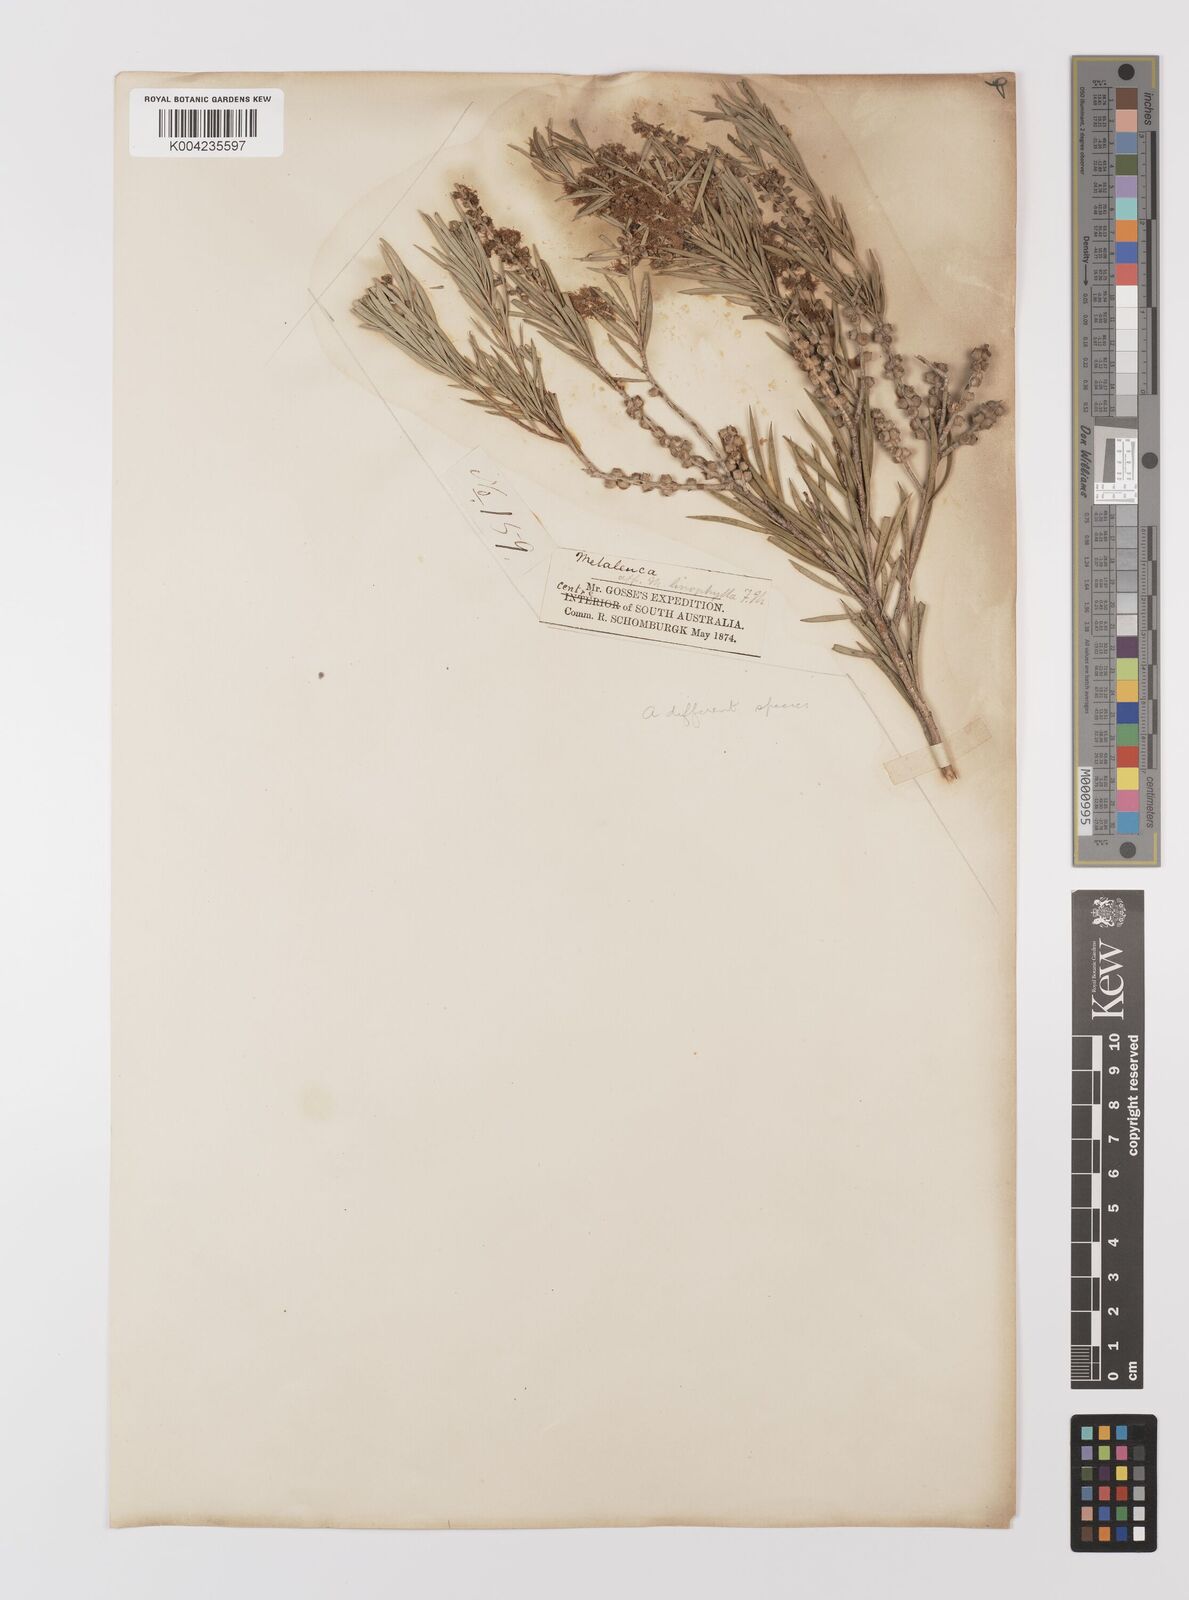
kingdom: Plantae
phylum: Tracheophyta
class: Magnoliopsida
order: Myrtales
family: Myrtaceae
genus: Melaleuca
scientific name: Melaleuca dissitiflora
